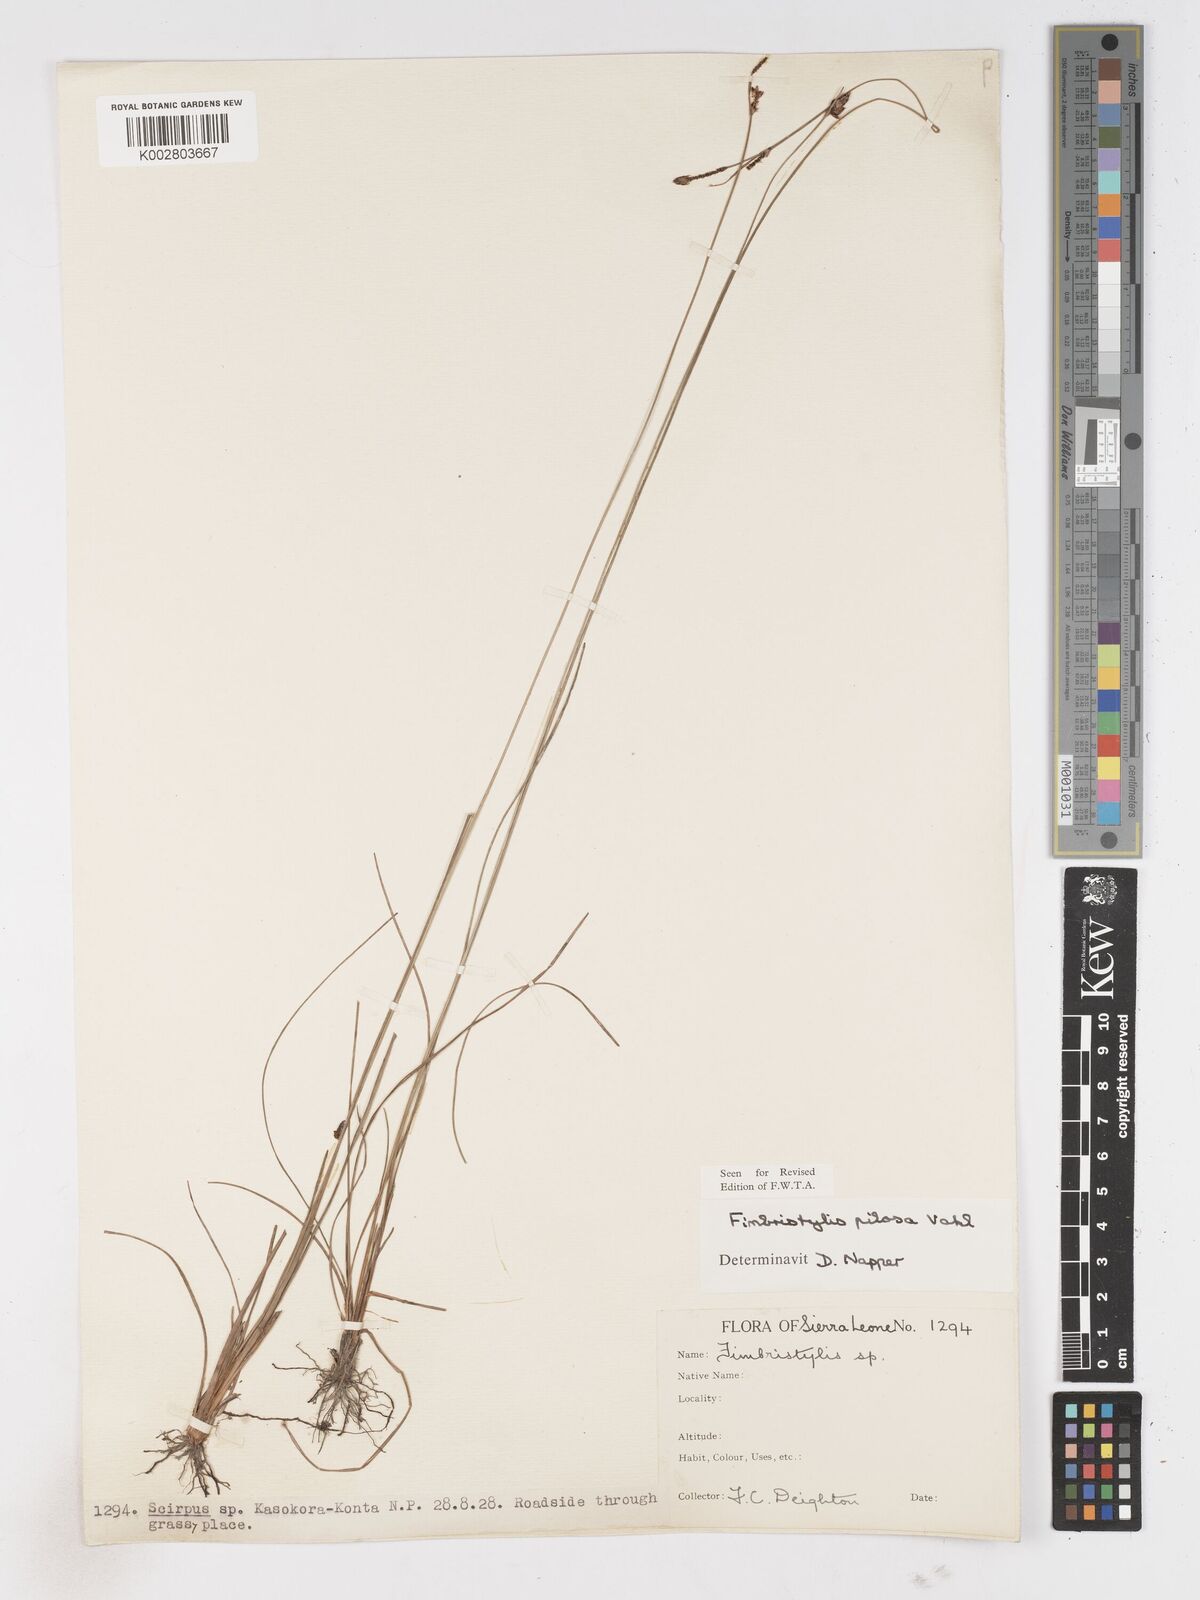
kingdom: Plantae
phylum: Tracheophyta
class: Liliopsida
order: Poales
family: Cyperaceae
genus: Fimbristylis
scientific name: Fimbristylis pilosa
